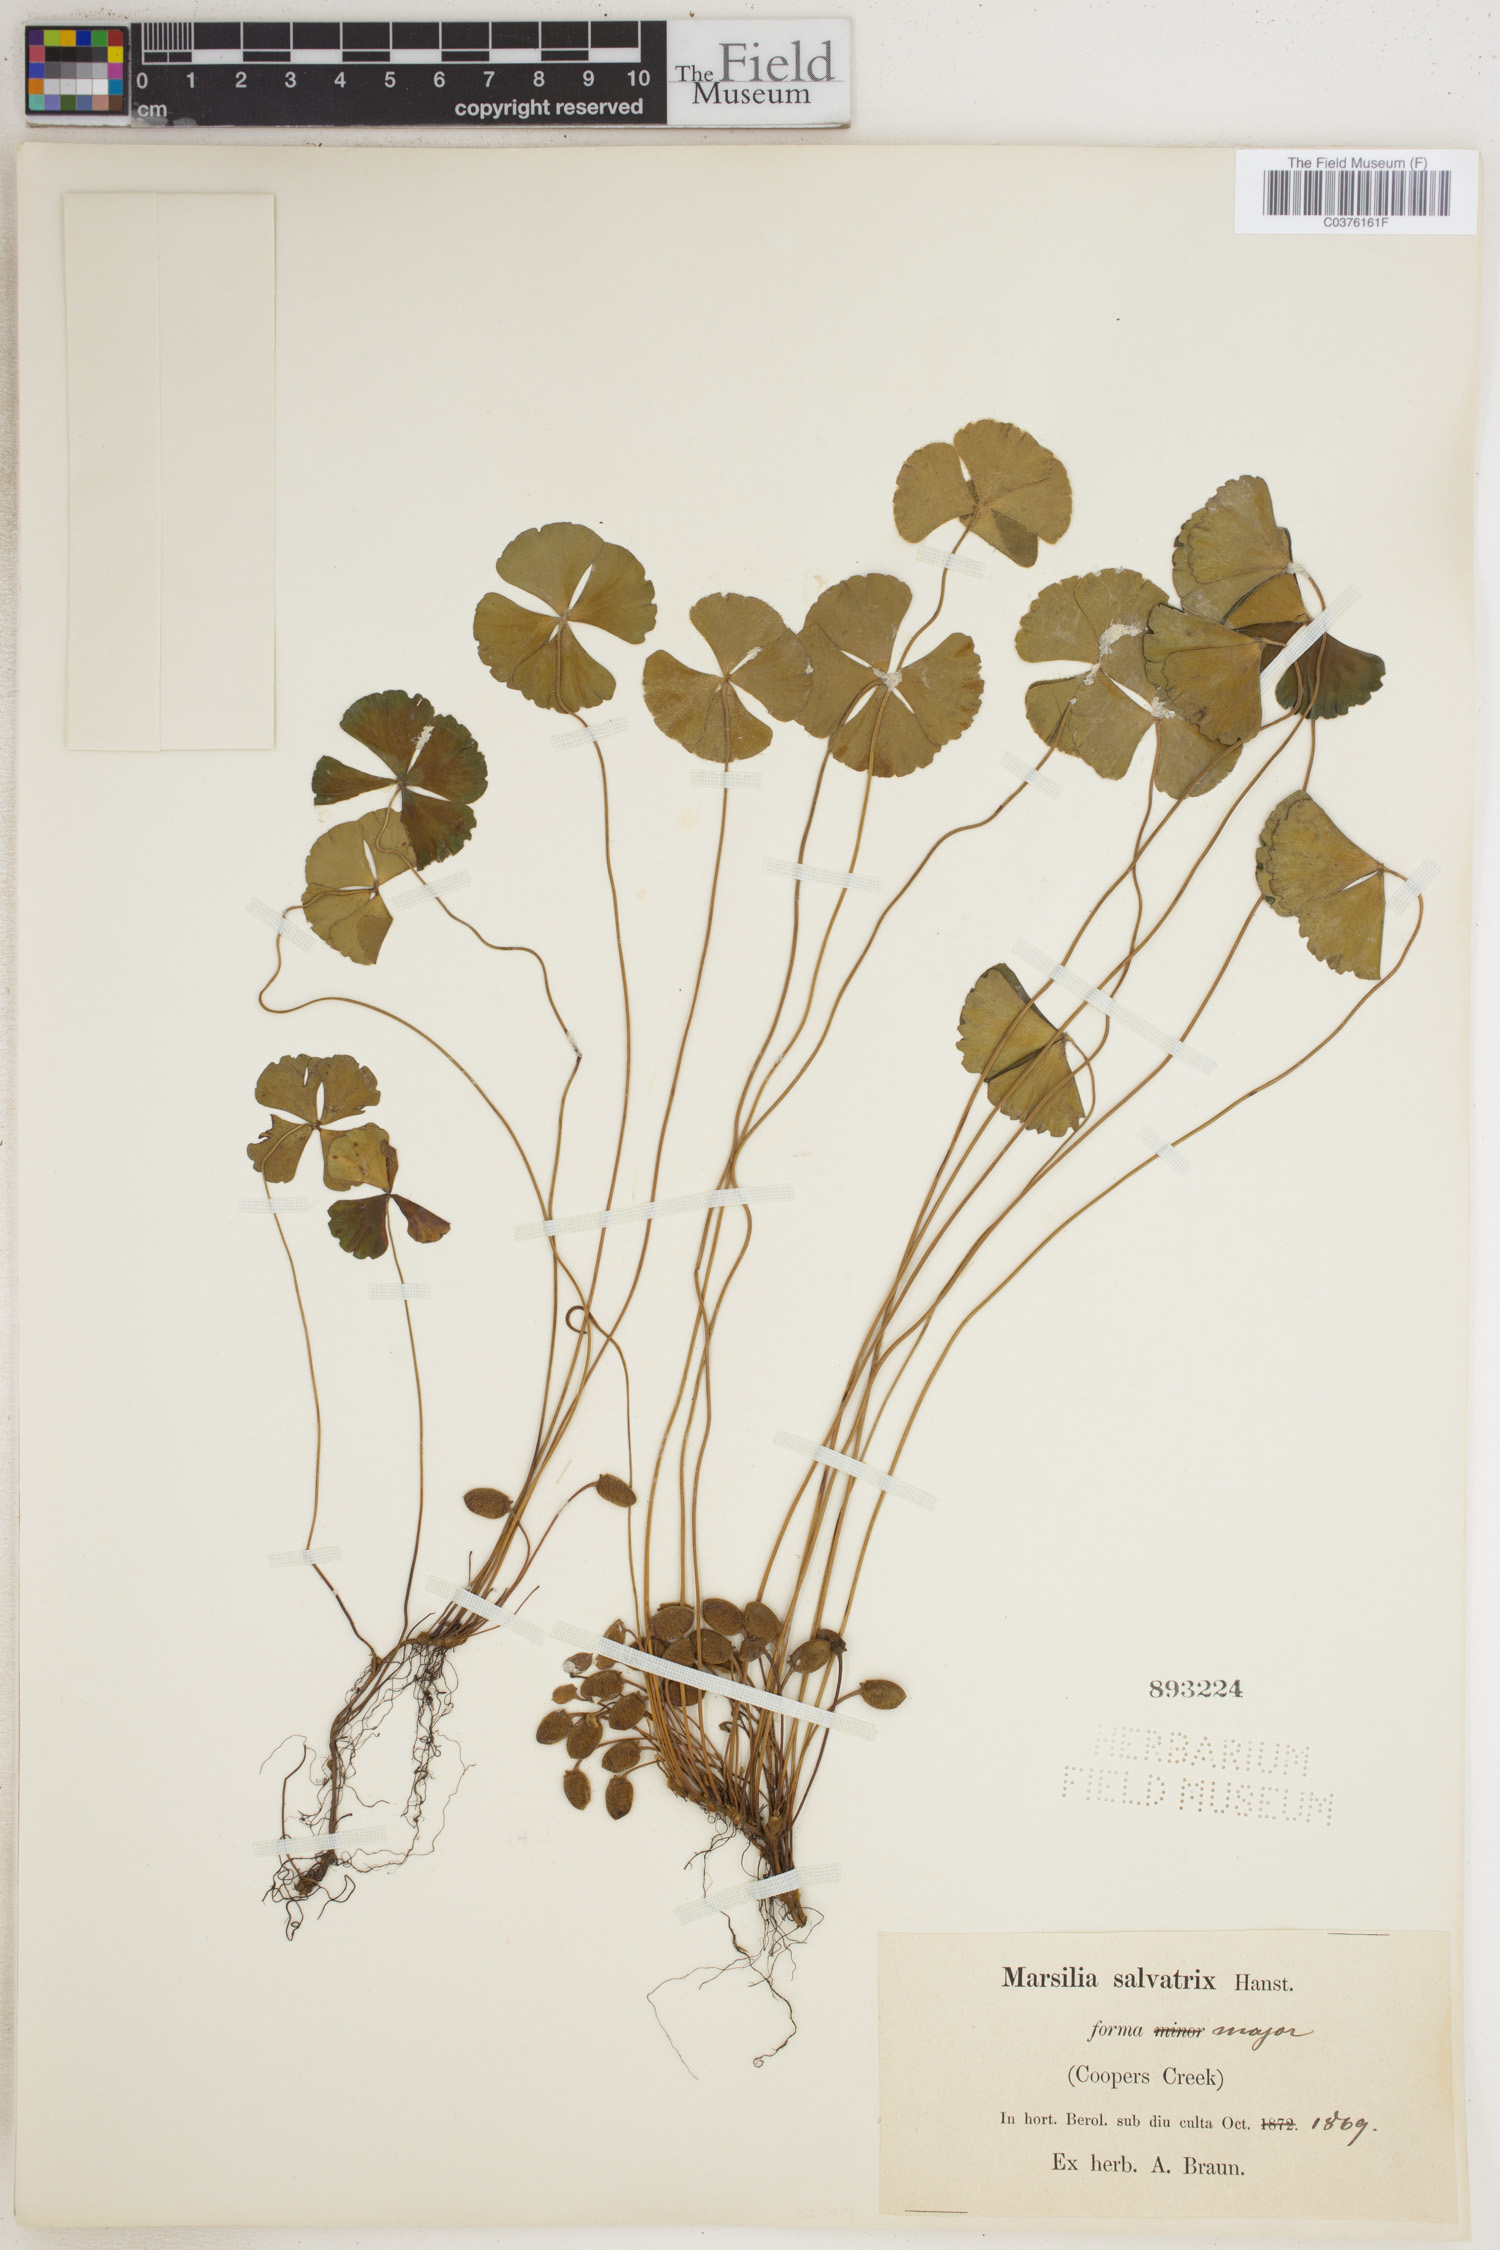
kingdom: Plantae
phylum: Tracheophyta
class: Polypodiopsida
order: Salviniales
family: Marsileaceae
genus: Marsilea
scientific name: Marsilea drummondii
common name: Nardoo
